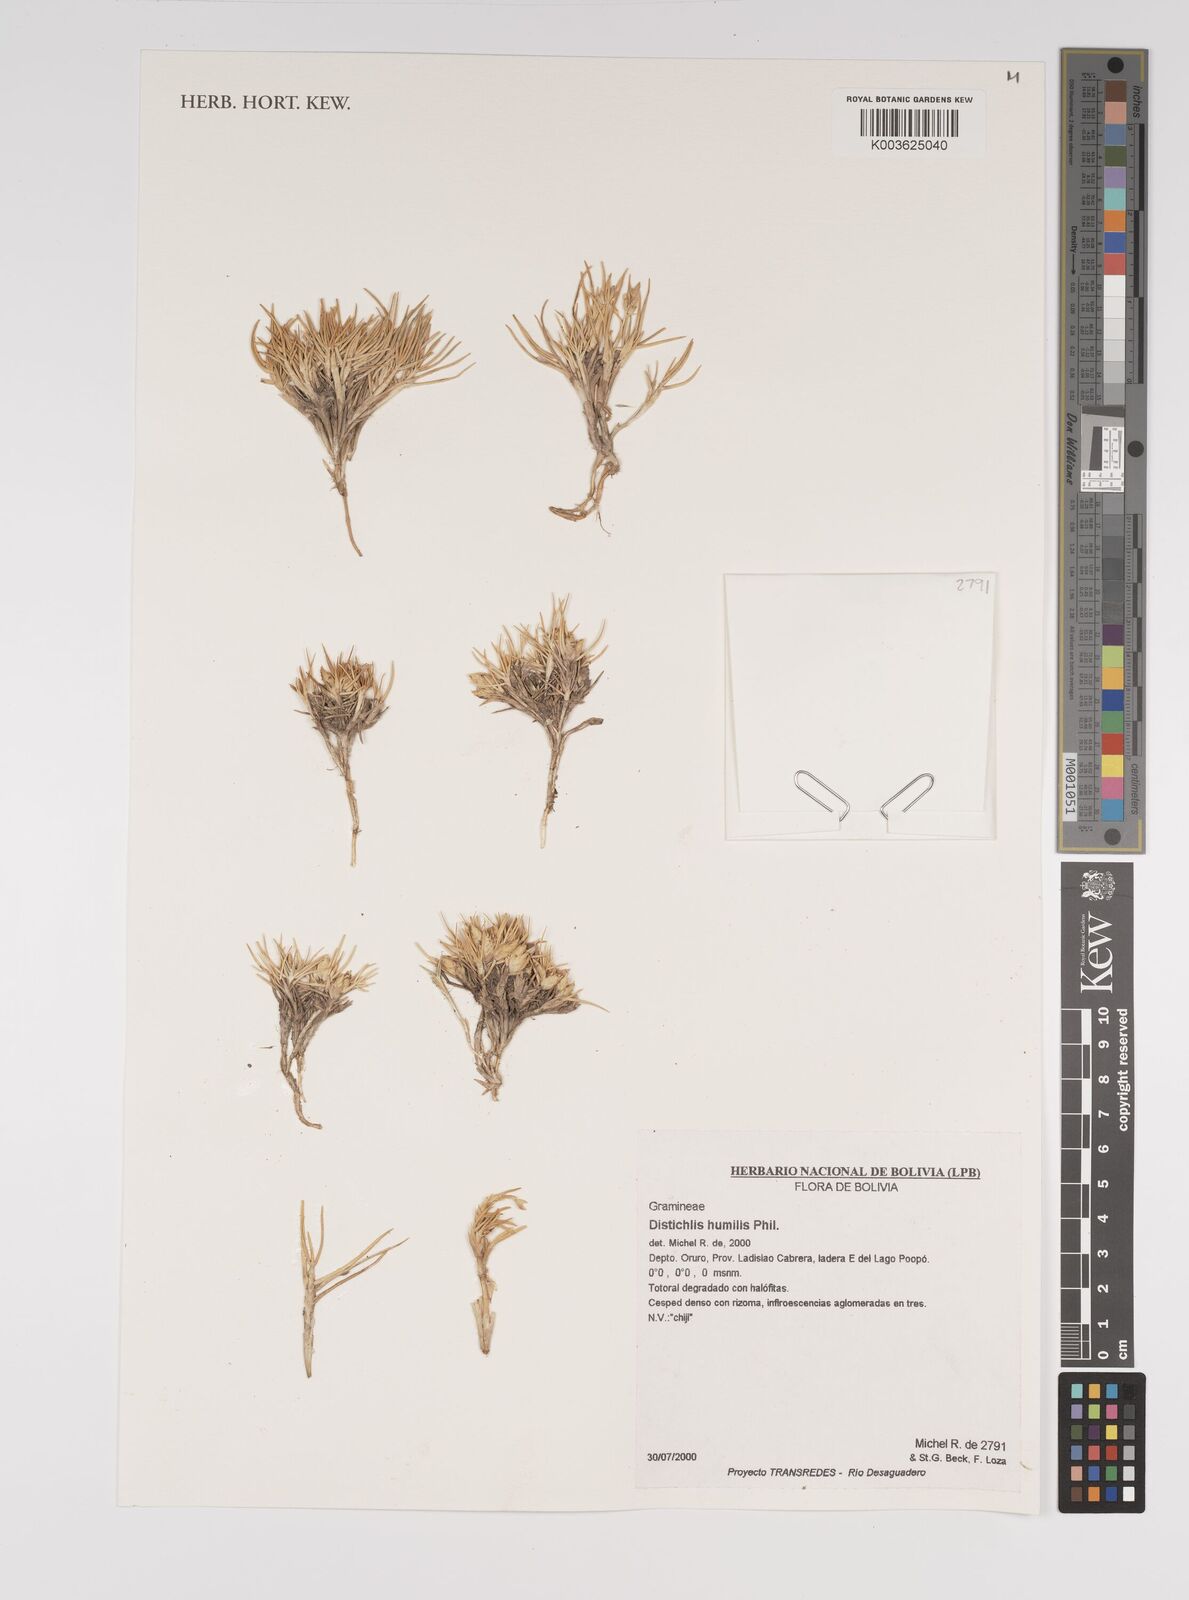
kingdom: Plantae
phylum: Tracheophyta
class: Liliopsida
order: Poales
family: Poaceae
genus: Distichlis
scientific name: Distichlis humilis
